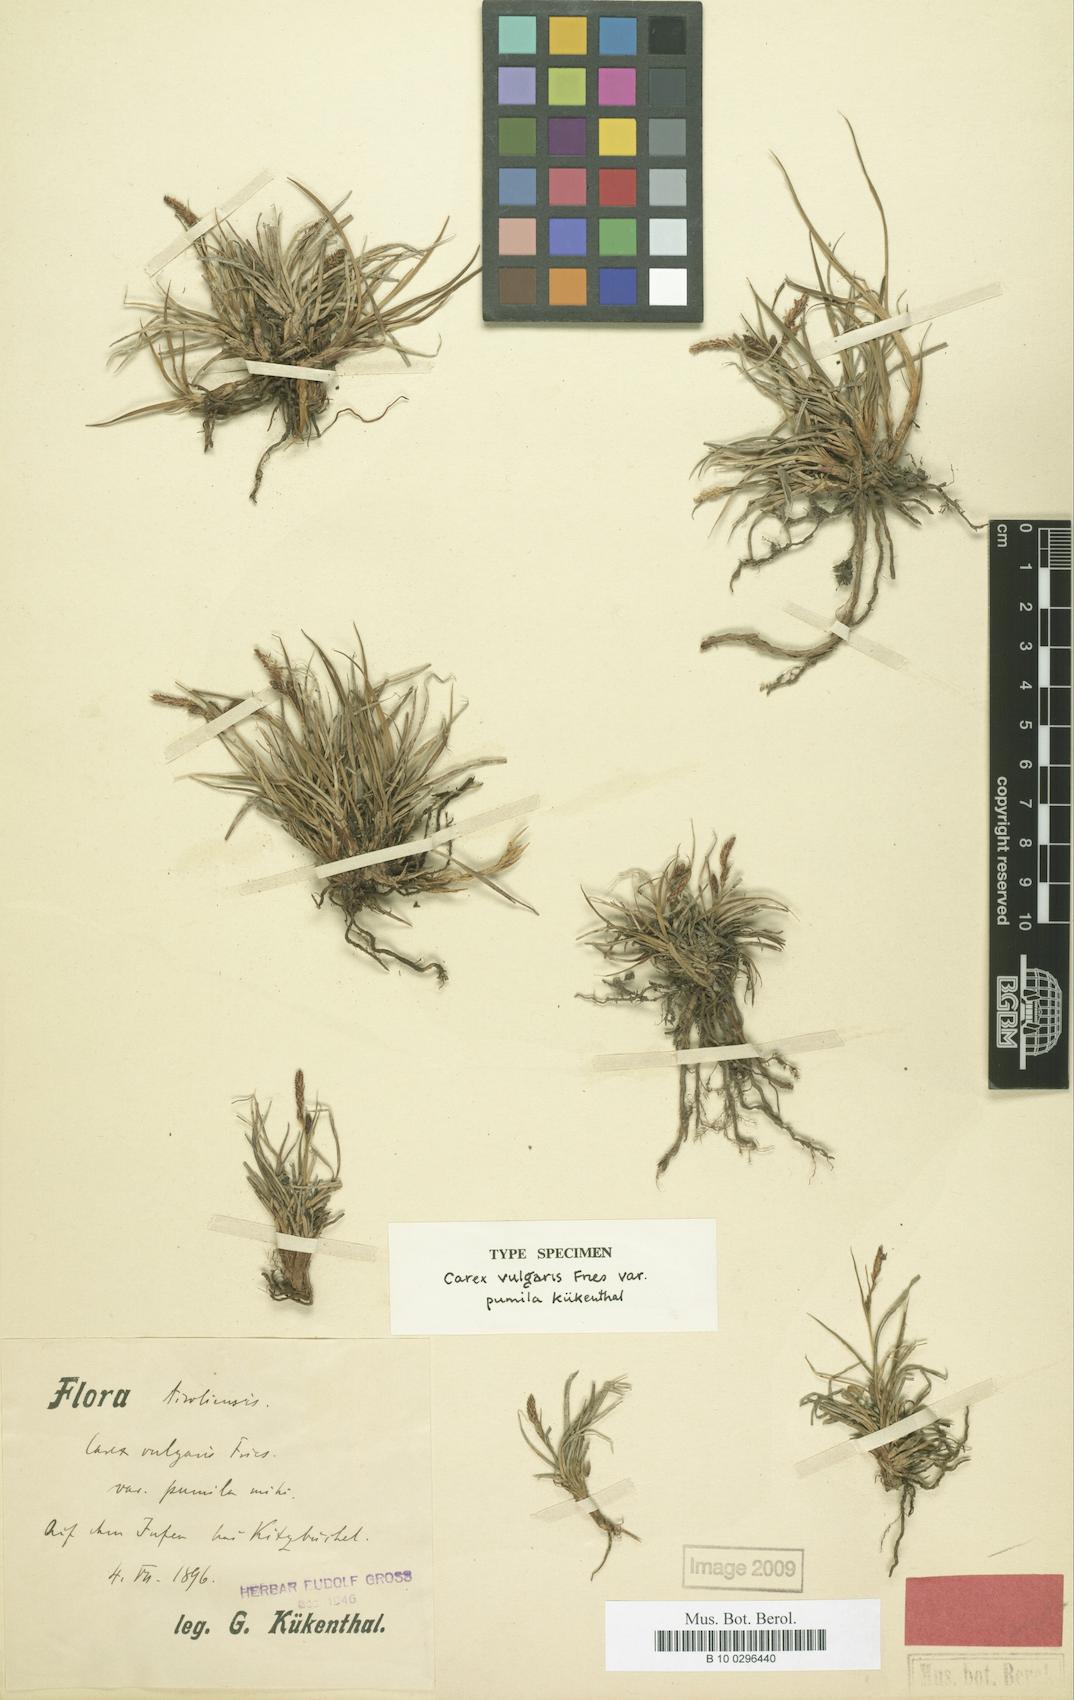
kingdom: Plantae
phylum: Tracheophyta
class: Liliopsida
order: Poales
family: Cyperaceae
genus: Carex
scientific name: Carex nigra
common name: Common sedge
